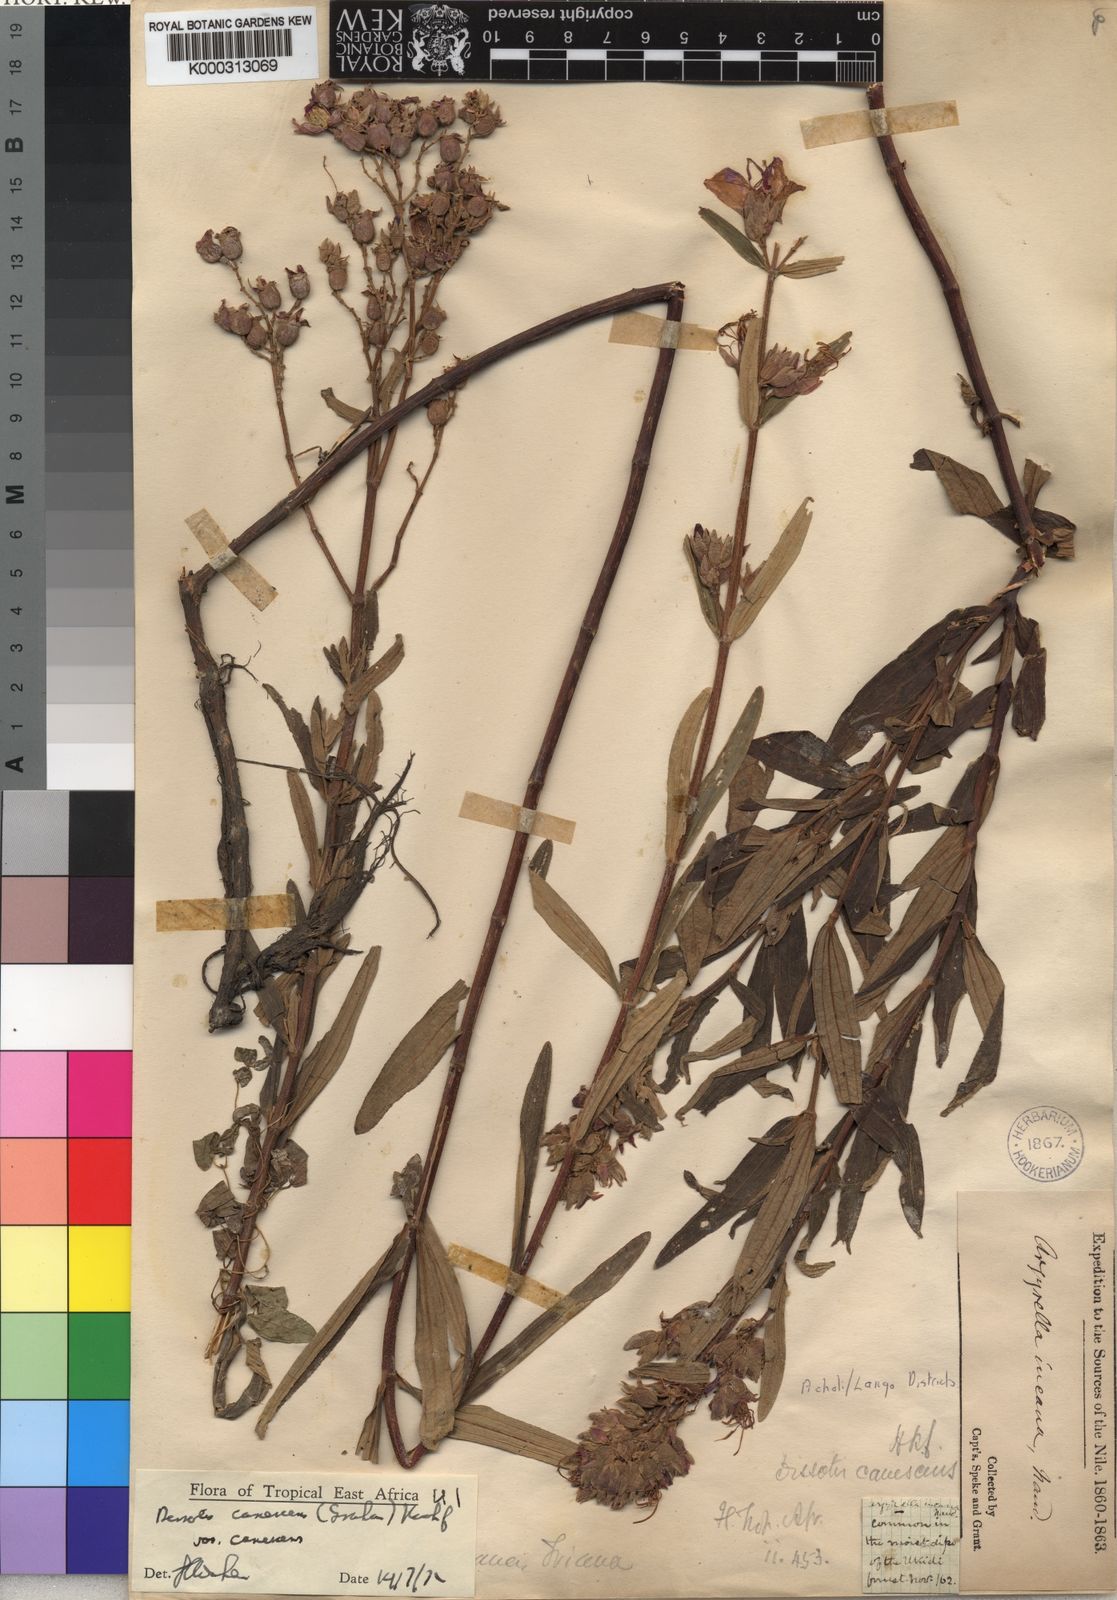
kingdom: Plantae
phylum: Tracheophyta
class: Magnoliopsida
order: Myrtales
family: Melastomataceae
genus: Heterotis
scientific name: Heterotis
